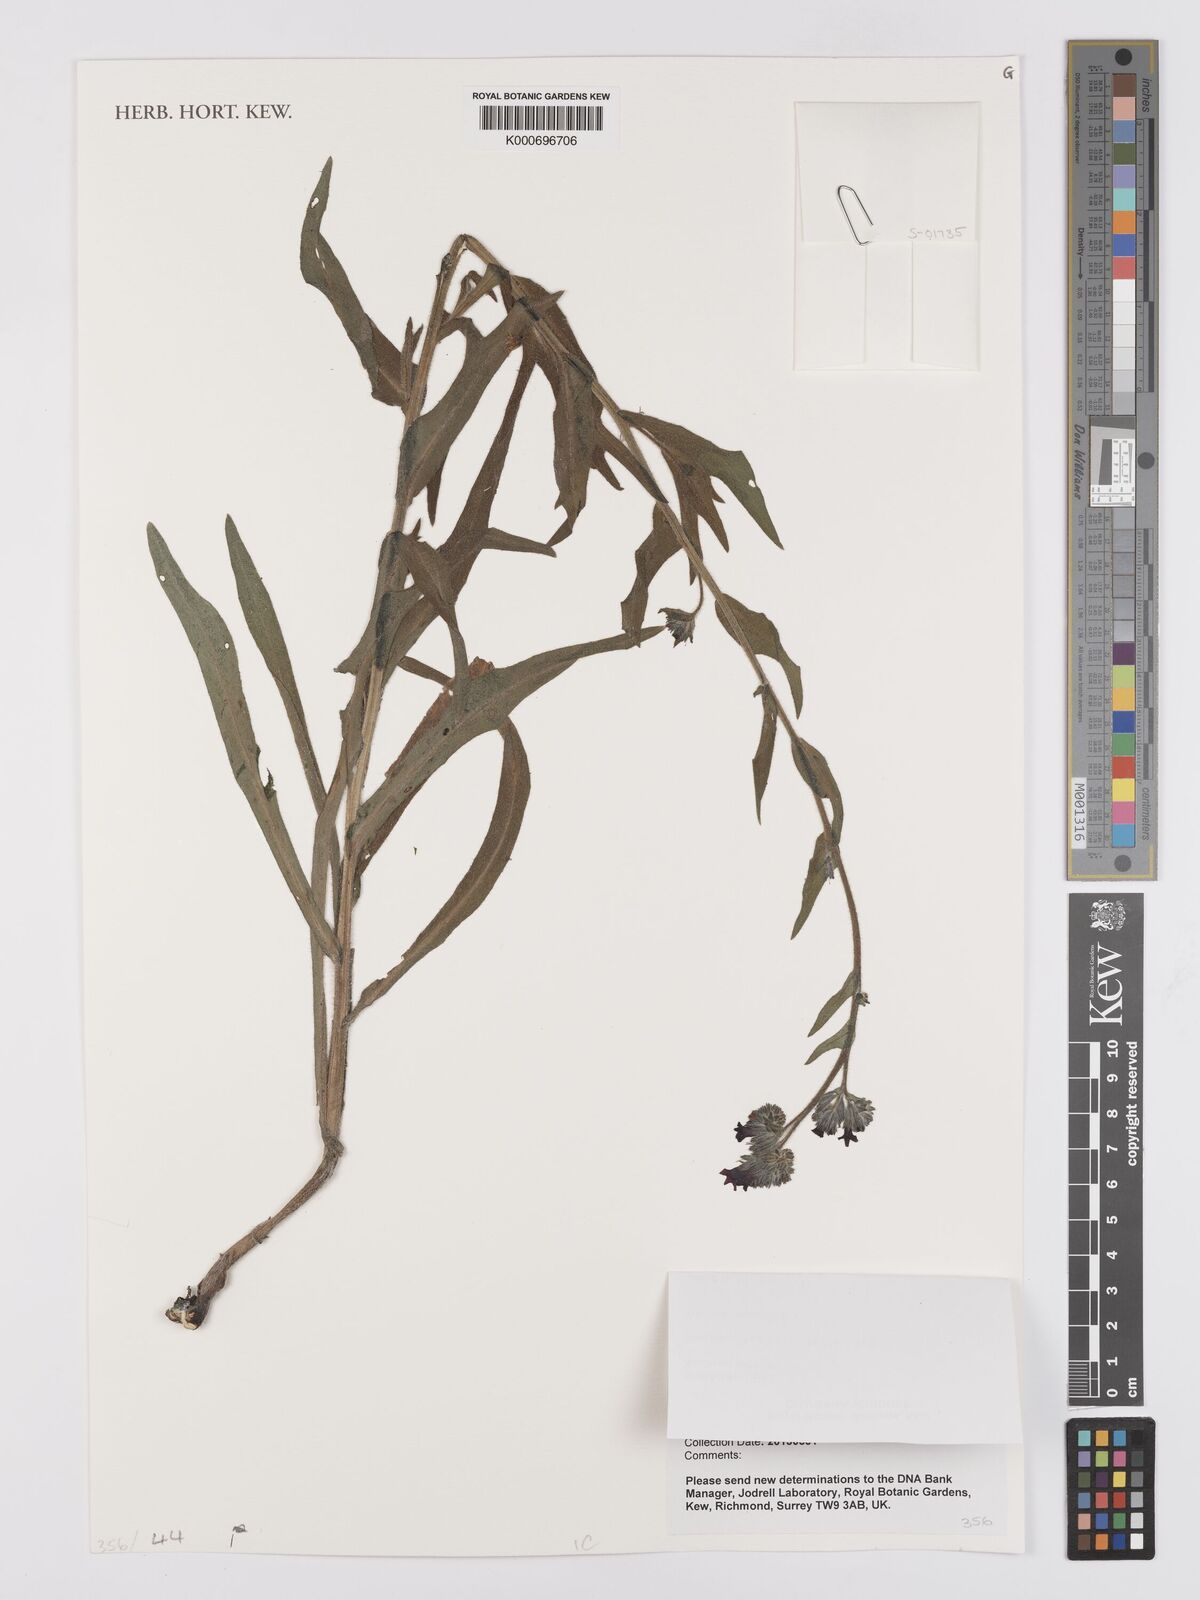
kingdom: Plantae
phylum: Tracheophyta
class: Magnoliopsida
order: Boraginales
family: Boraginaceae
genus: Anchusa
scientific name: Anchusa leptophylla
